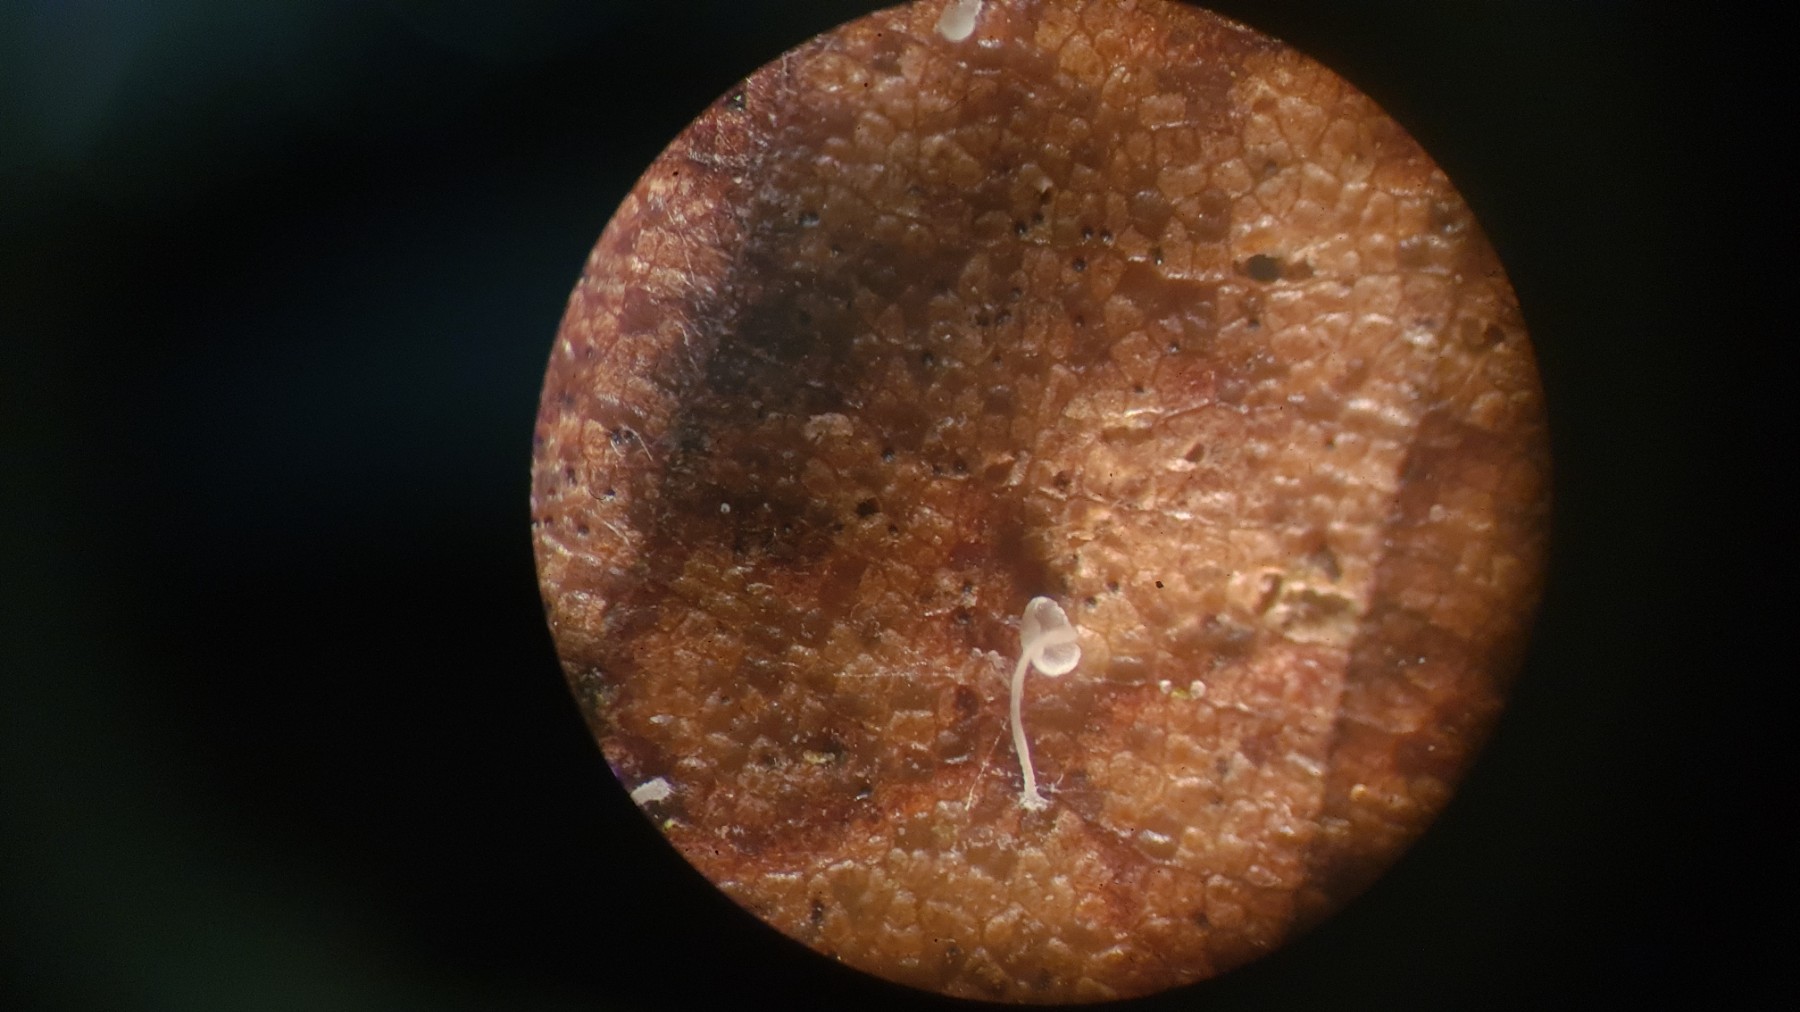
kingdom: Fungi
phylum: Basidiomycota
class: Agaricomycetes
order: Agaricales
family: Mycenaceae
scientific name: Mycenaceae
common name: huesvampfamilien
